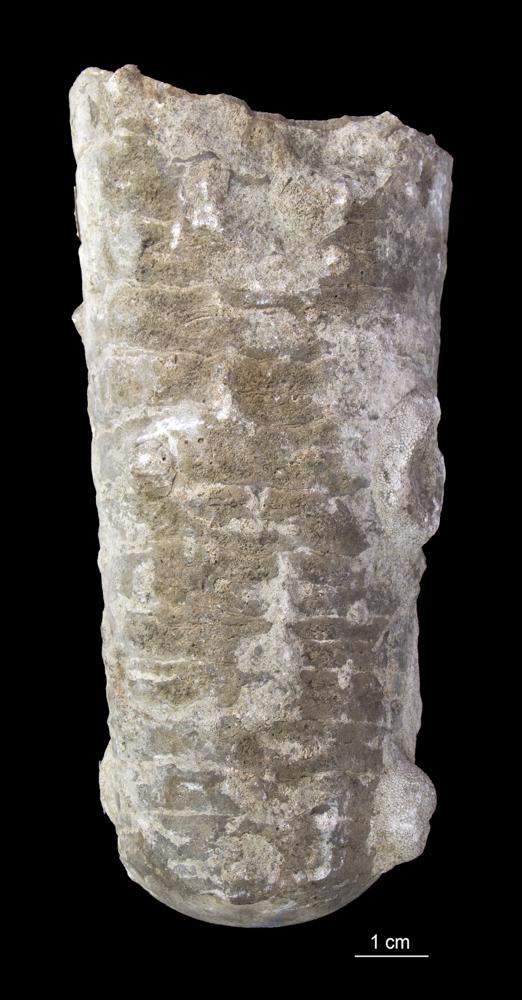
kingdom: Animalia
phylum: Mollusca
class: Cephalopoda
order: Orthocerida
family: Orthoceratidae
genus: Orthoceras
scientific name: Orthoceras
